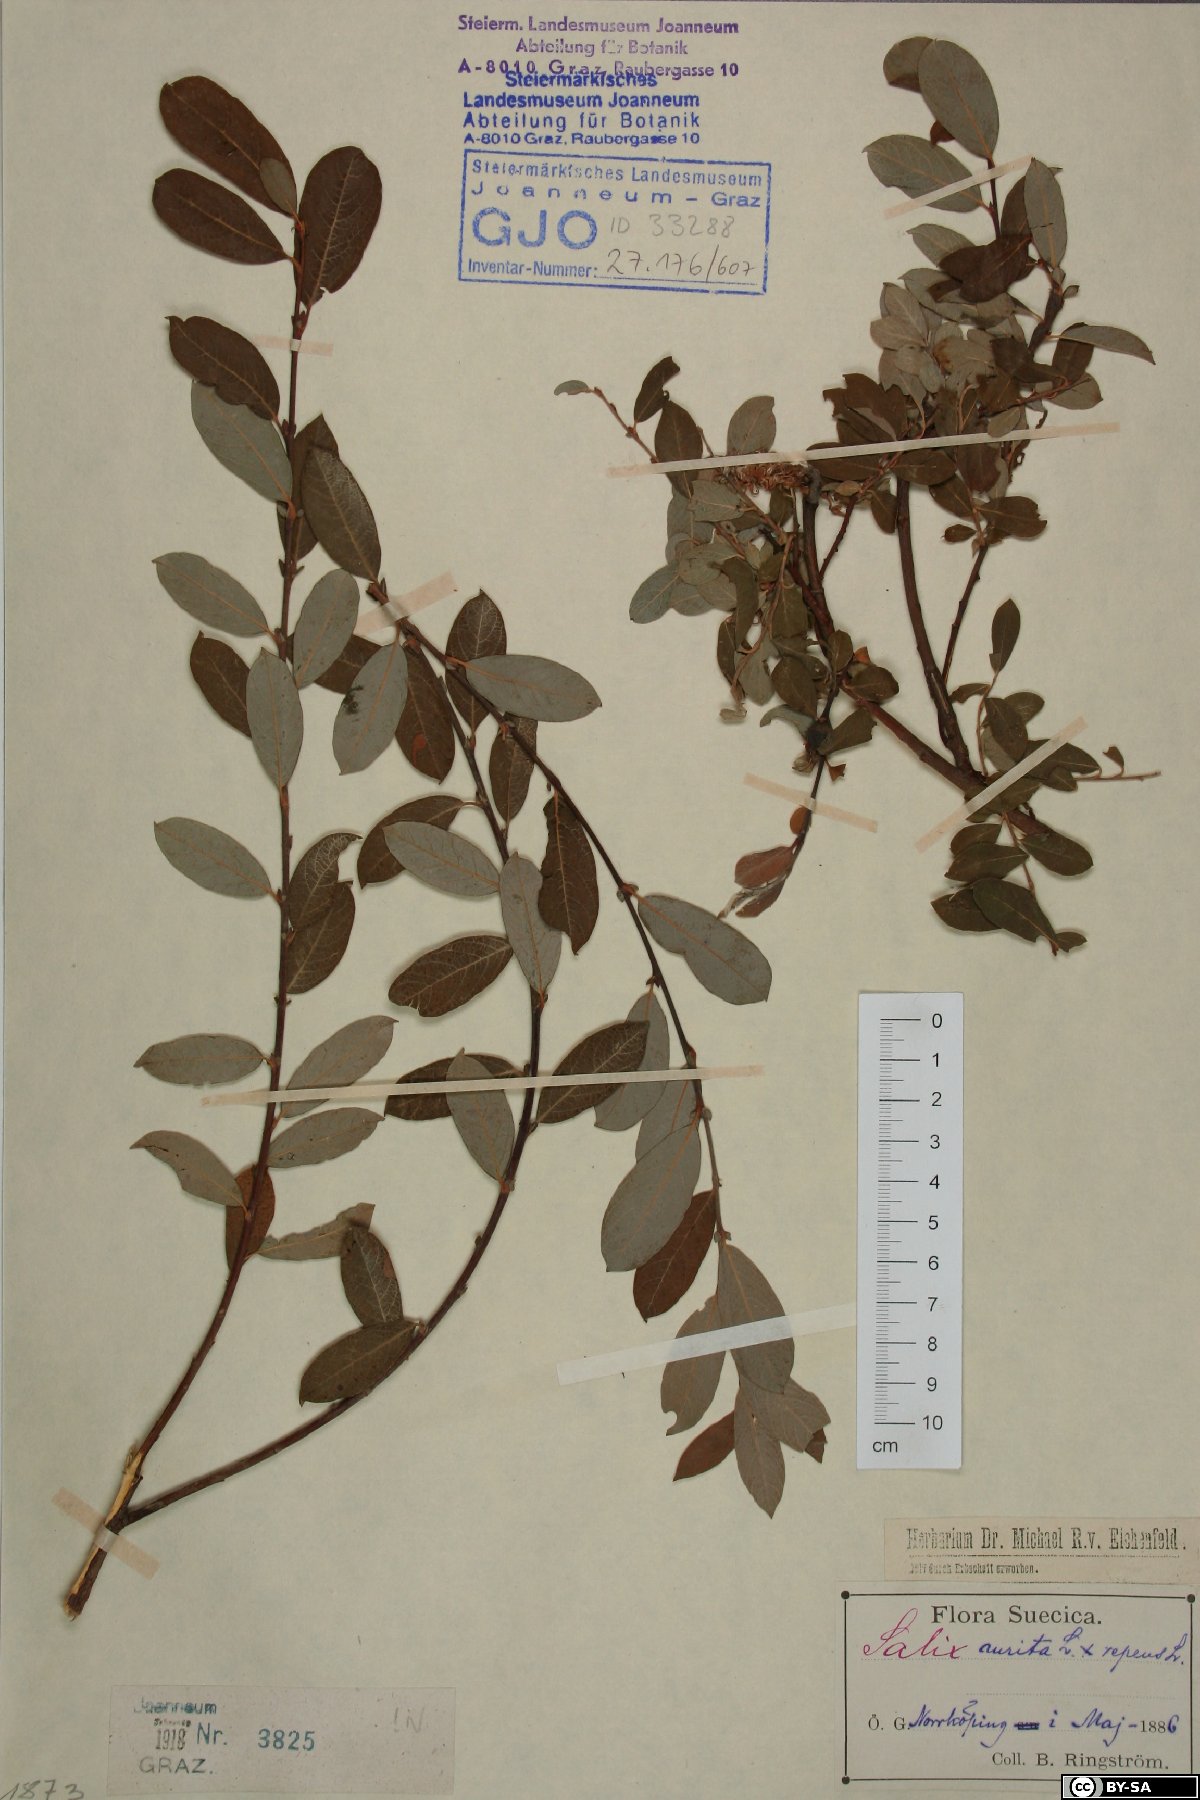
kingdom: Plantae
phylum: Tracheophyta
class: Magnoliopsida
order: Malpighiales
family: Salicaceae
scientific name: Salicaceae
